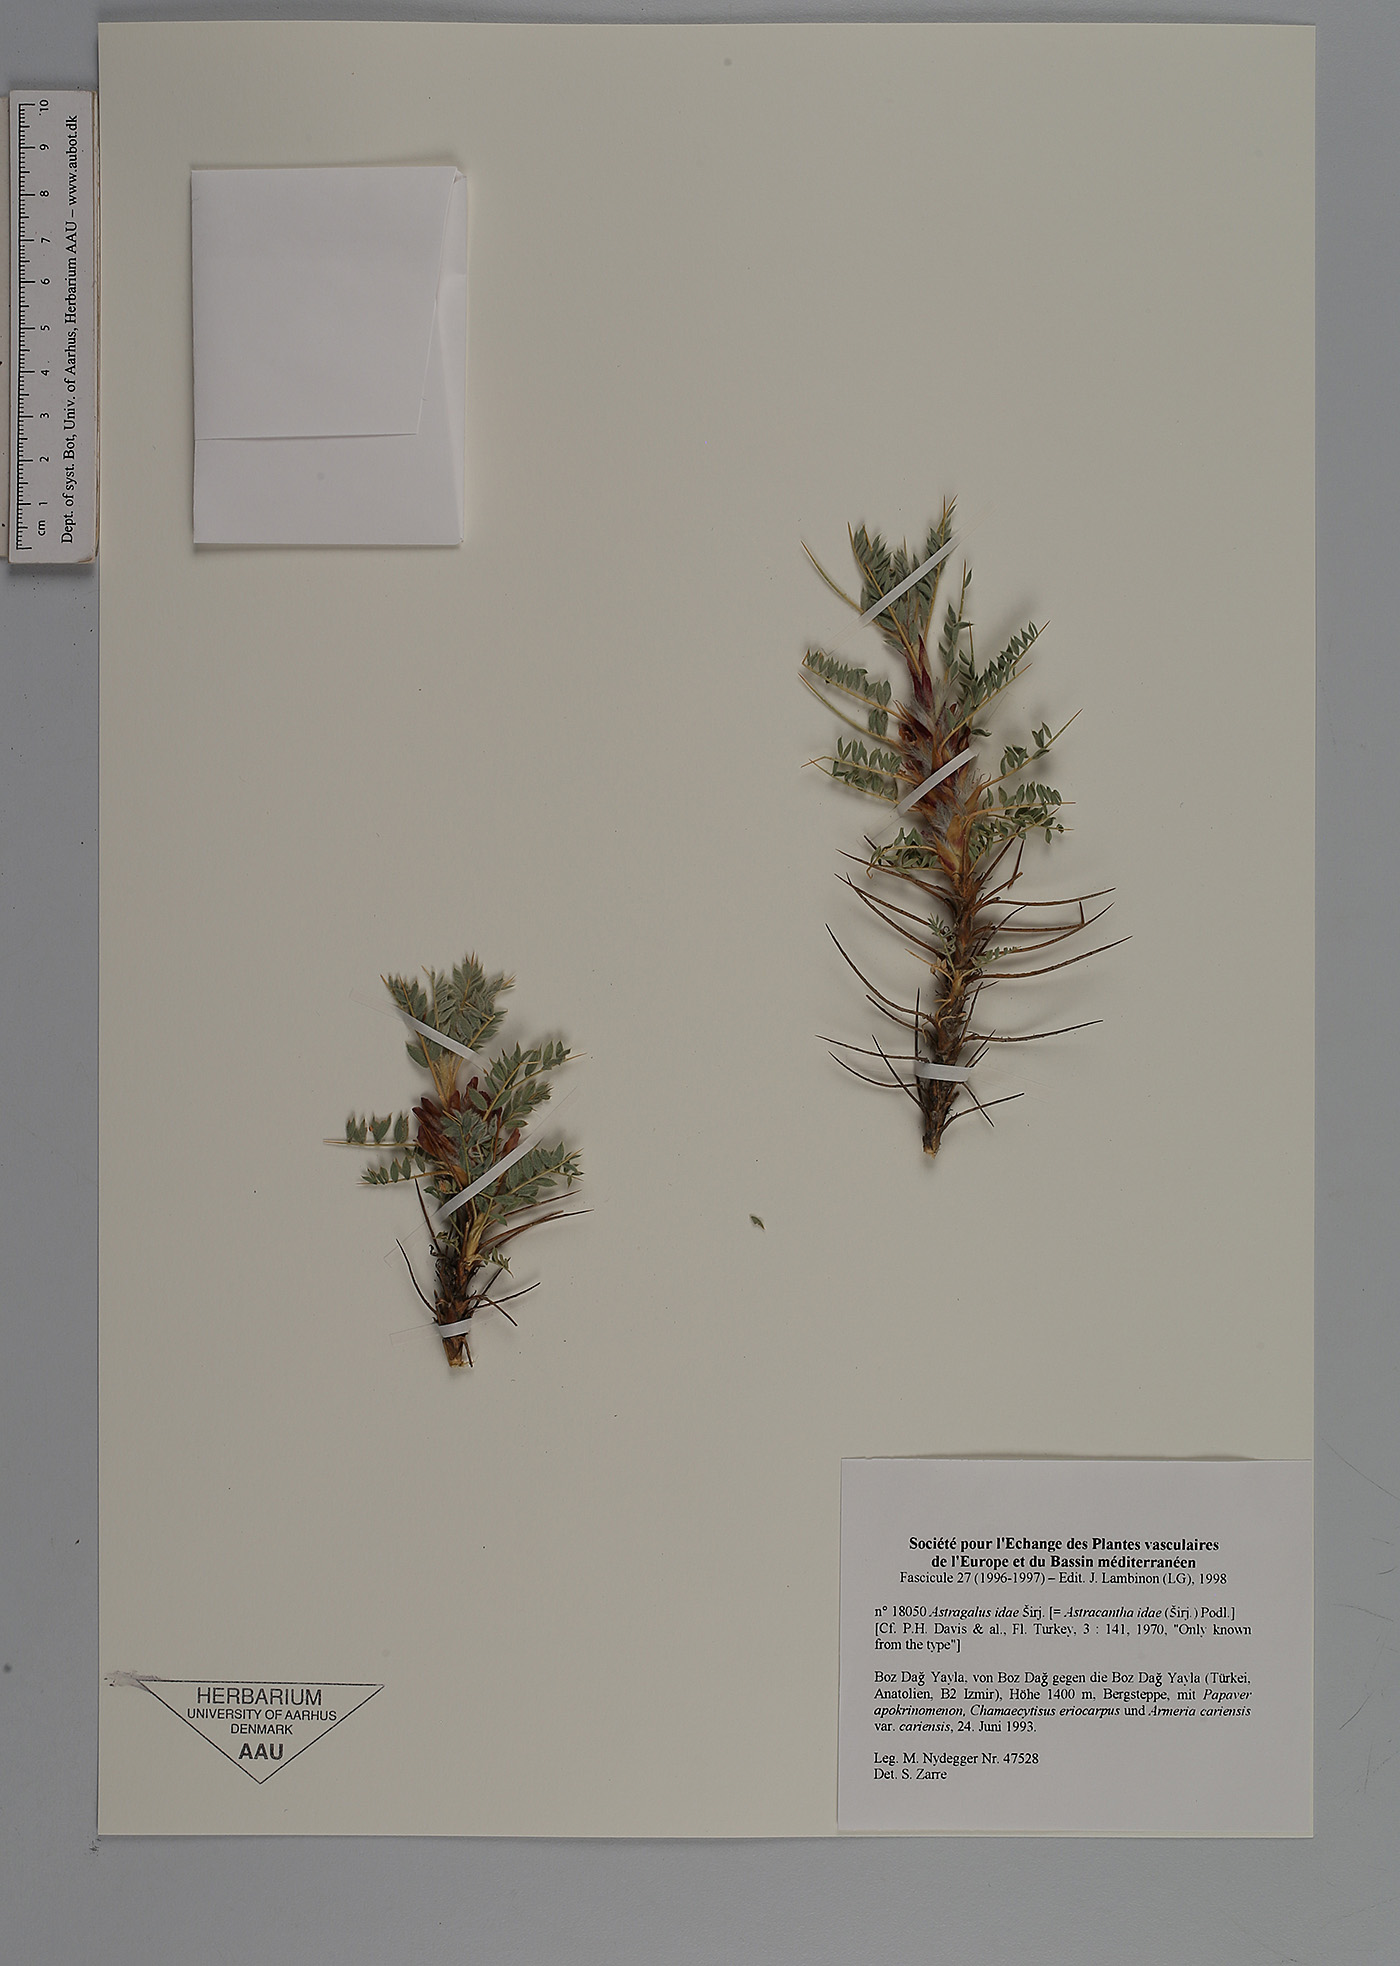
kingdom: Plantae
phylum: Tracheophyta
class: Magnoliopsida
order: Fabales
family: Fabaceae
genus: Astragalus
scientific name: Astragalus thracicus
